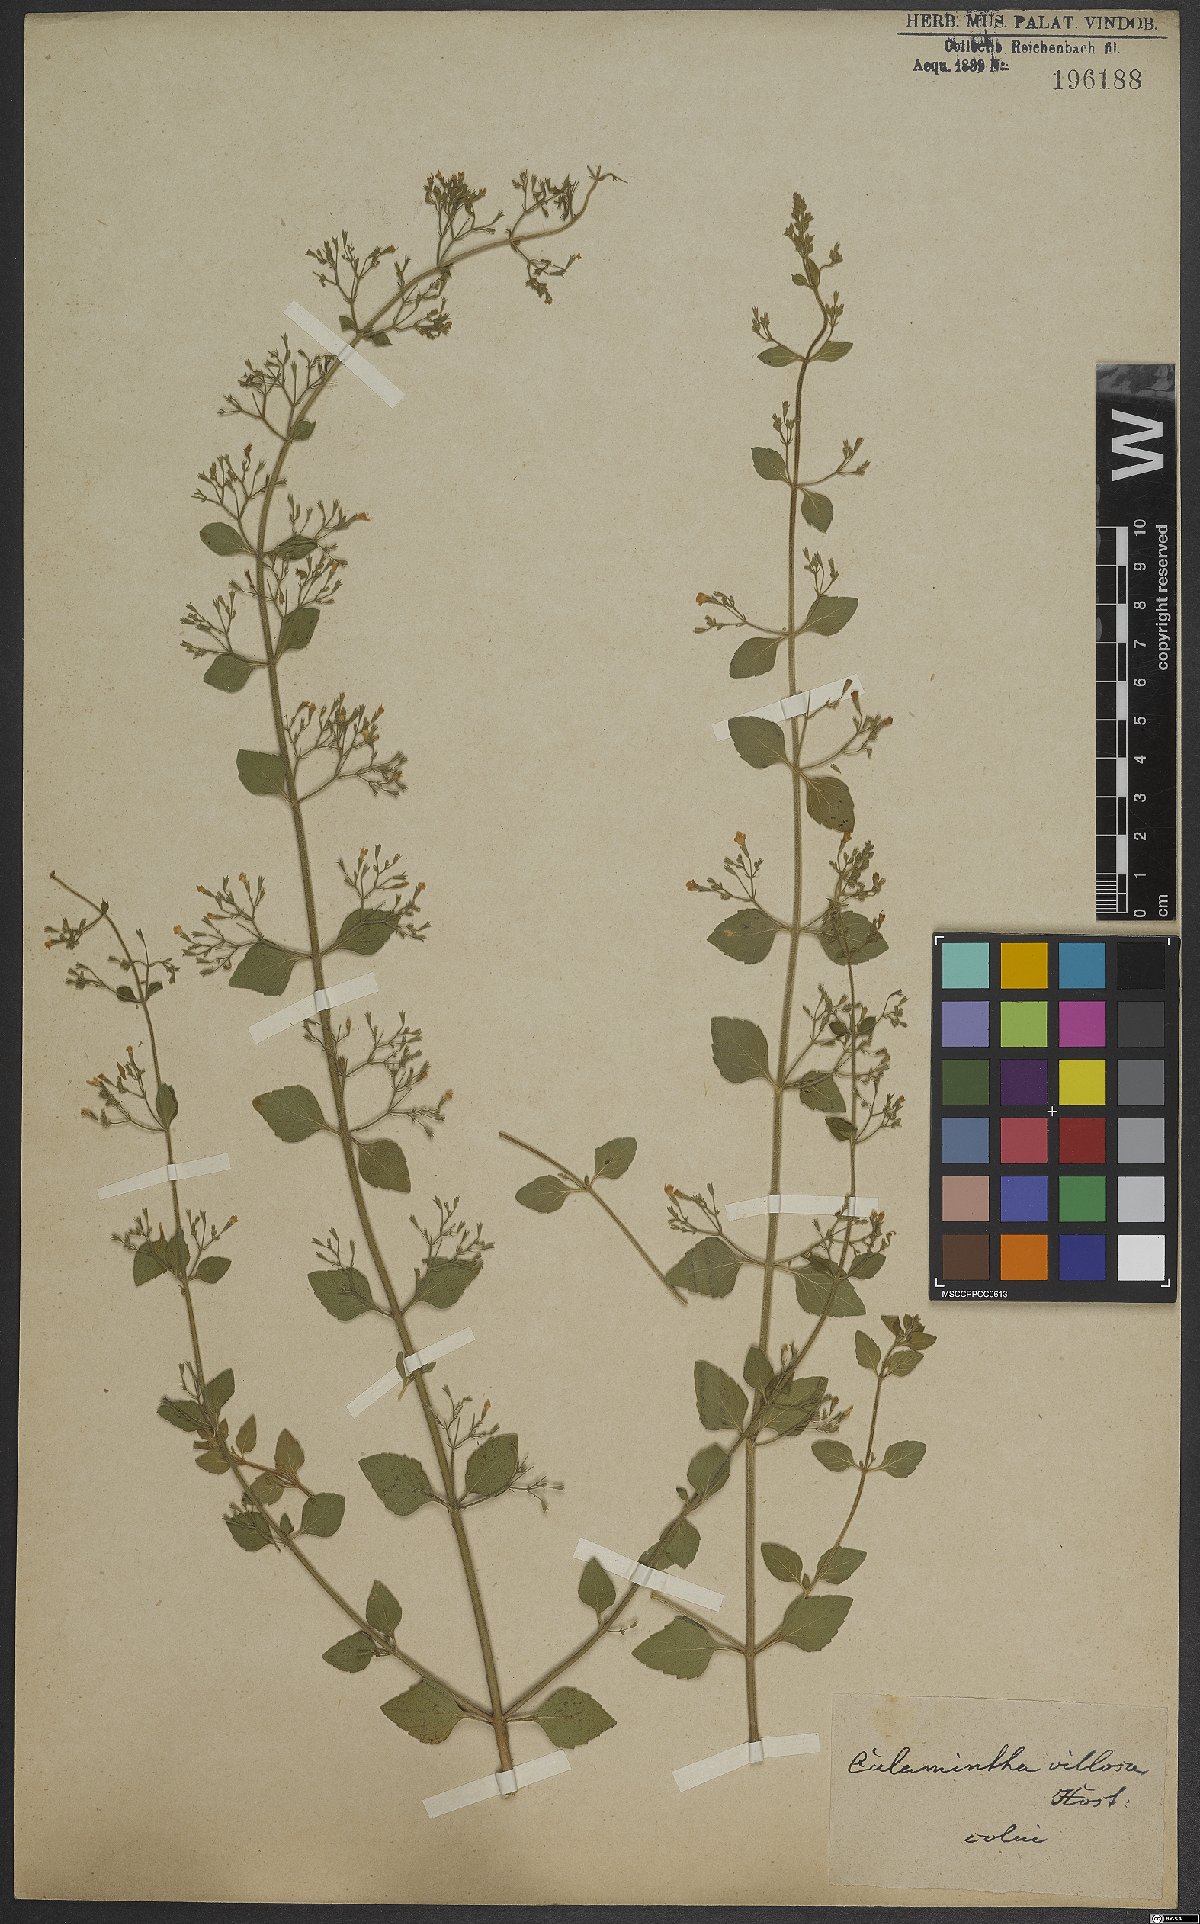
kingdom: Plantae
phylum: Tracheophyta
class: Magnoliopsida
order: Lamiales
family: Lamiaceae
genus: Clinopodium
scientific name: Clinopodium acinos
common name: Basil thyme
